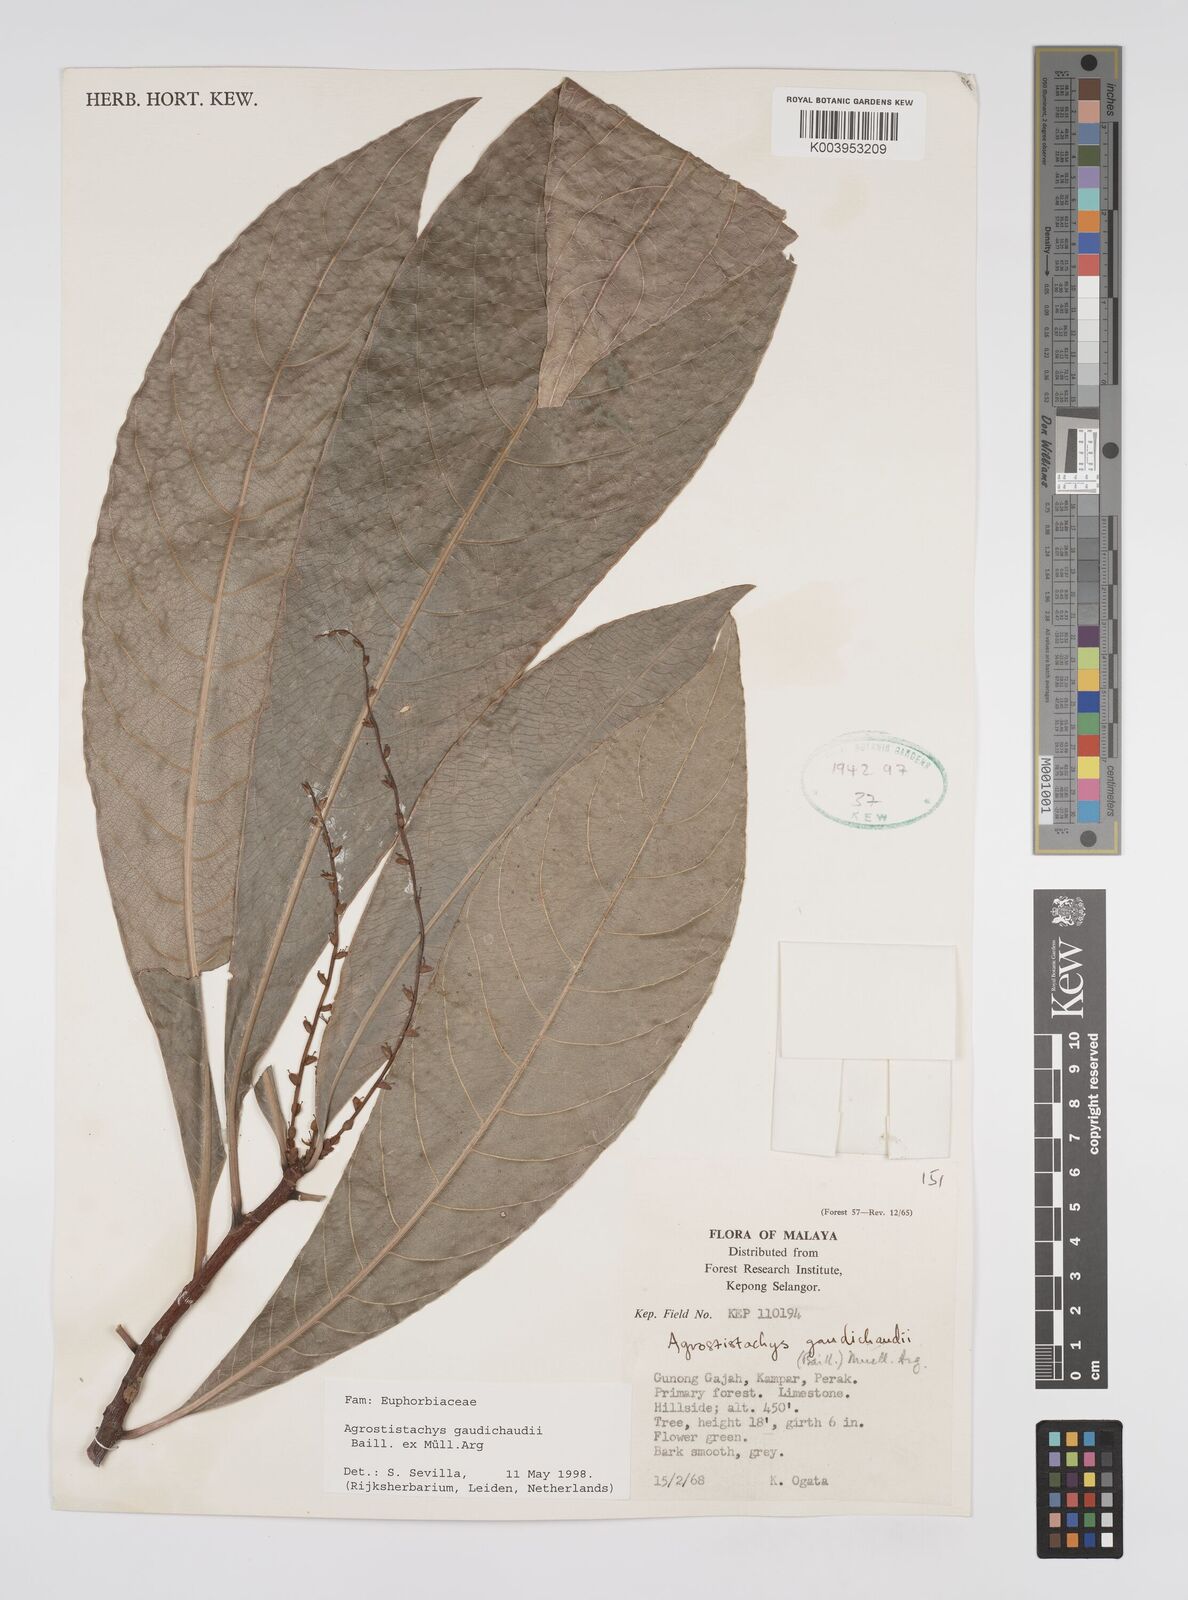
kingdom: Plantae
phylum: Tracheophyta
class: Magnoliopsida
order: Malpighiales
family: Euphorbiaceae
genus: Agrostistachys
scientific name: Agrostistachys gaudichaudii
